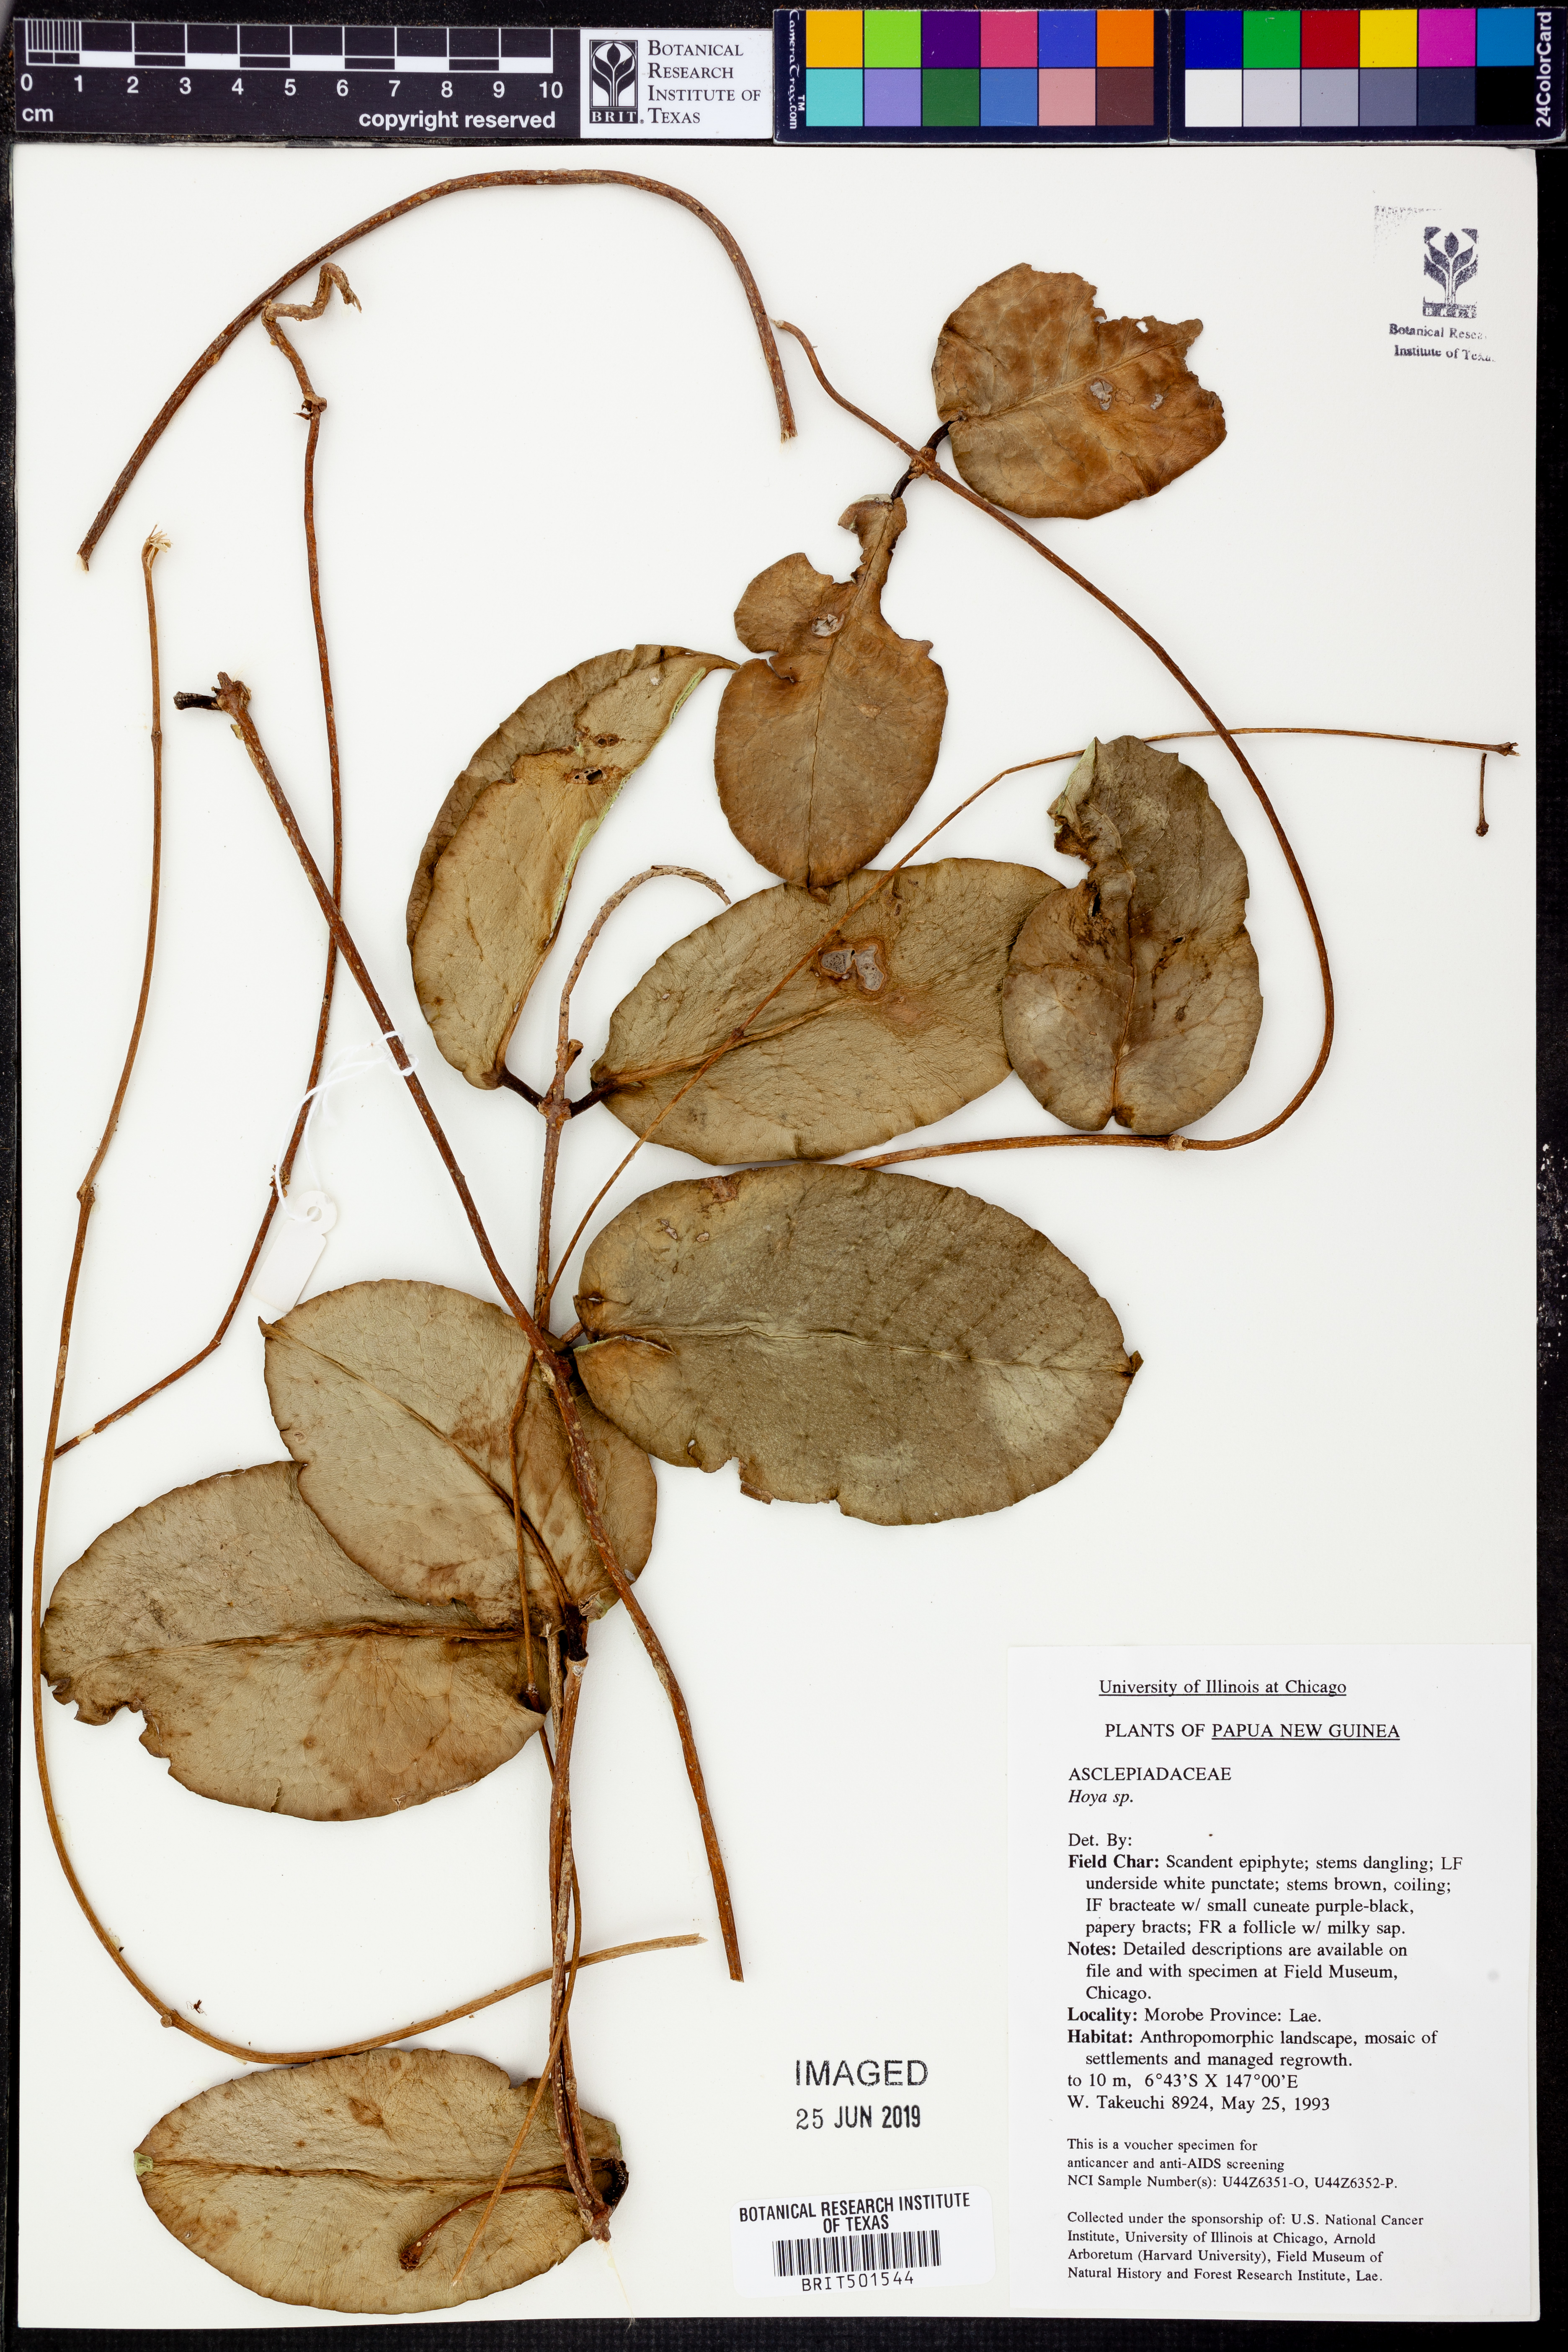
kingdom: Plantae
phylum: Tracheophyta
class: Magnoliopsida
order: Gentianales
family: Apocynaceae
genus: Hoya
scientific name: Hoya
